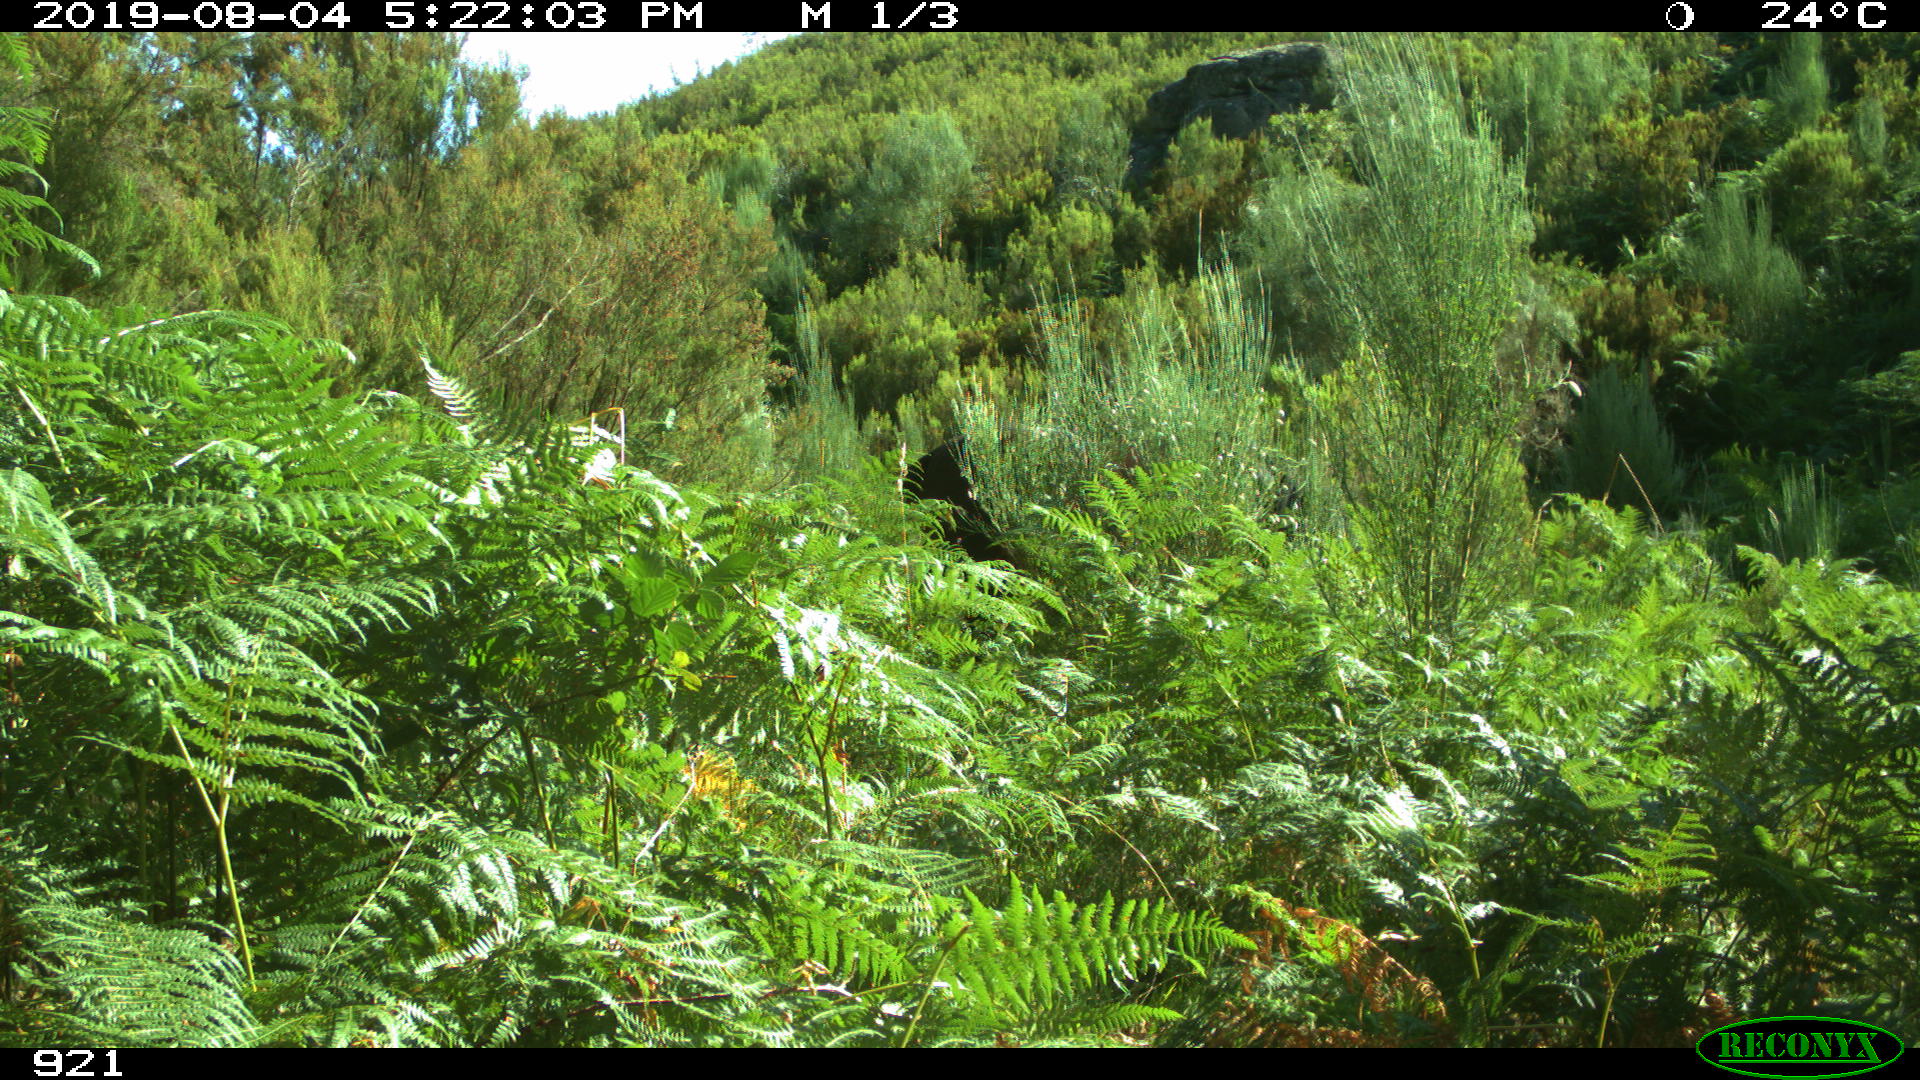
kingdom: Animalia
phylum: Chordata
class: Mammalia
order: Perissodactyla
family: Equidae
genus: Equus
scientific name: Equus caballus
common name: Horse
